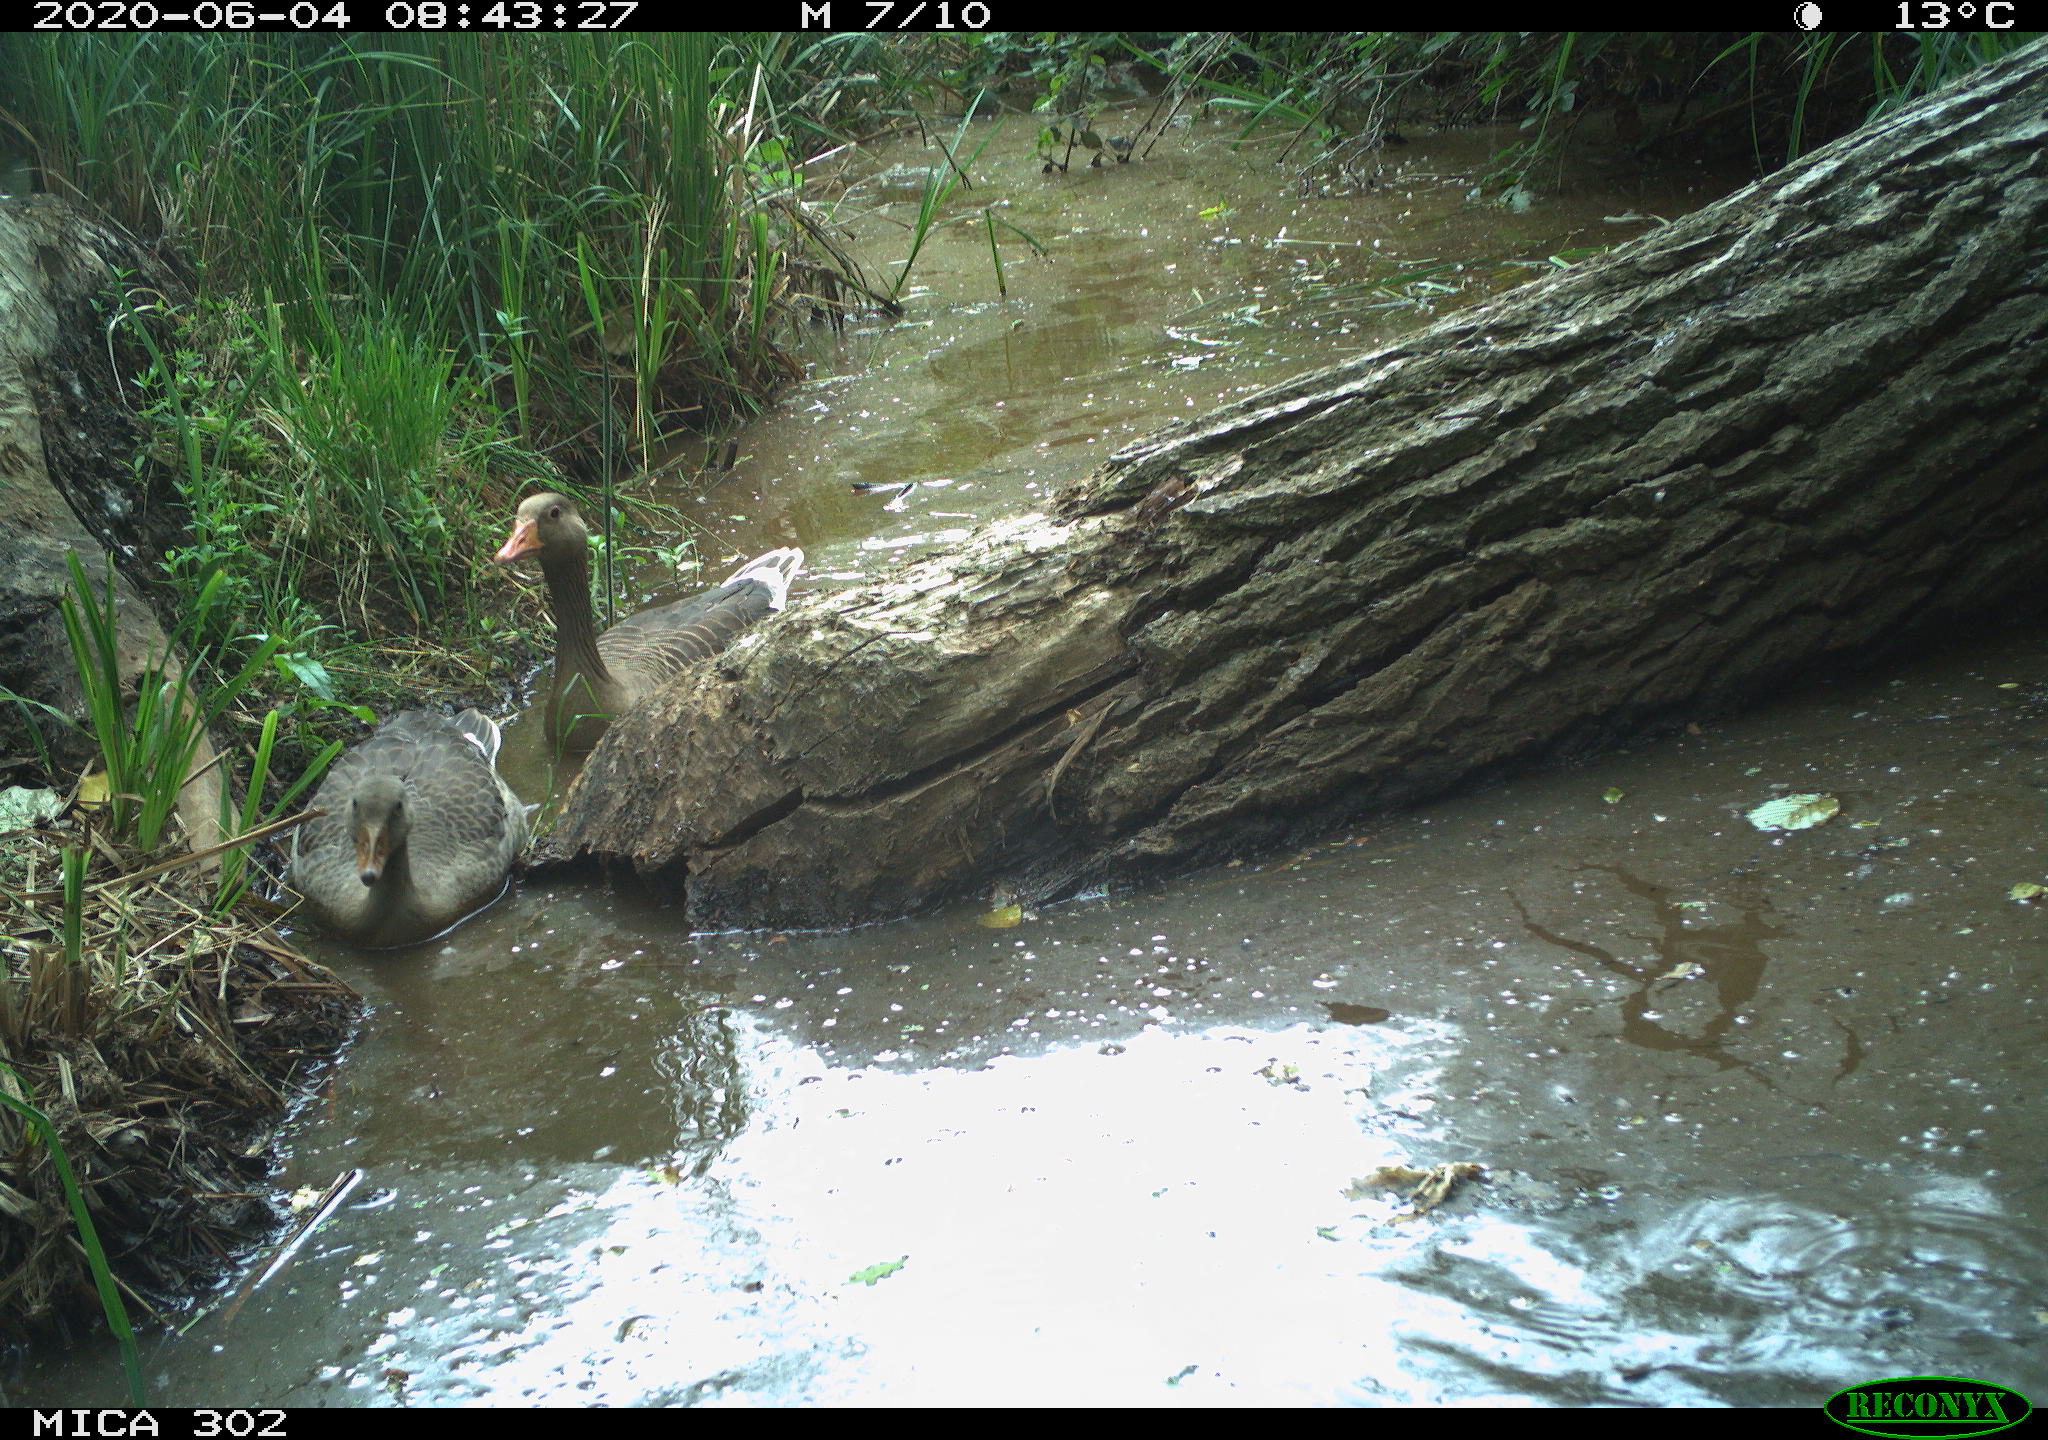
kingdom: Animalia
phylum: Chordata
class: Aves
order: Anseriformes
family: Anatidae
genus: Anser
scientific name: Anser anser
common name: Greylag goose
